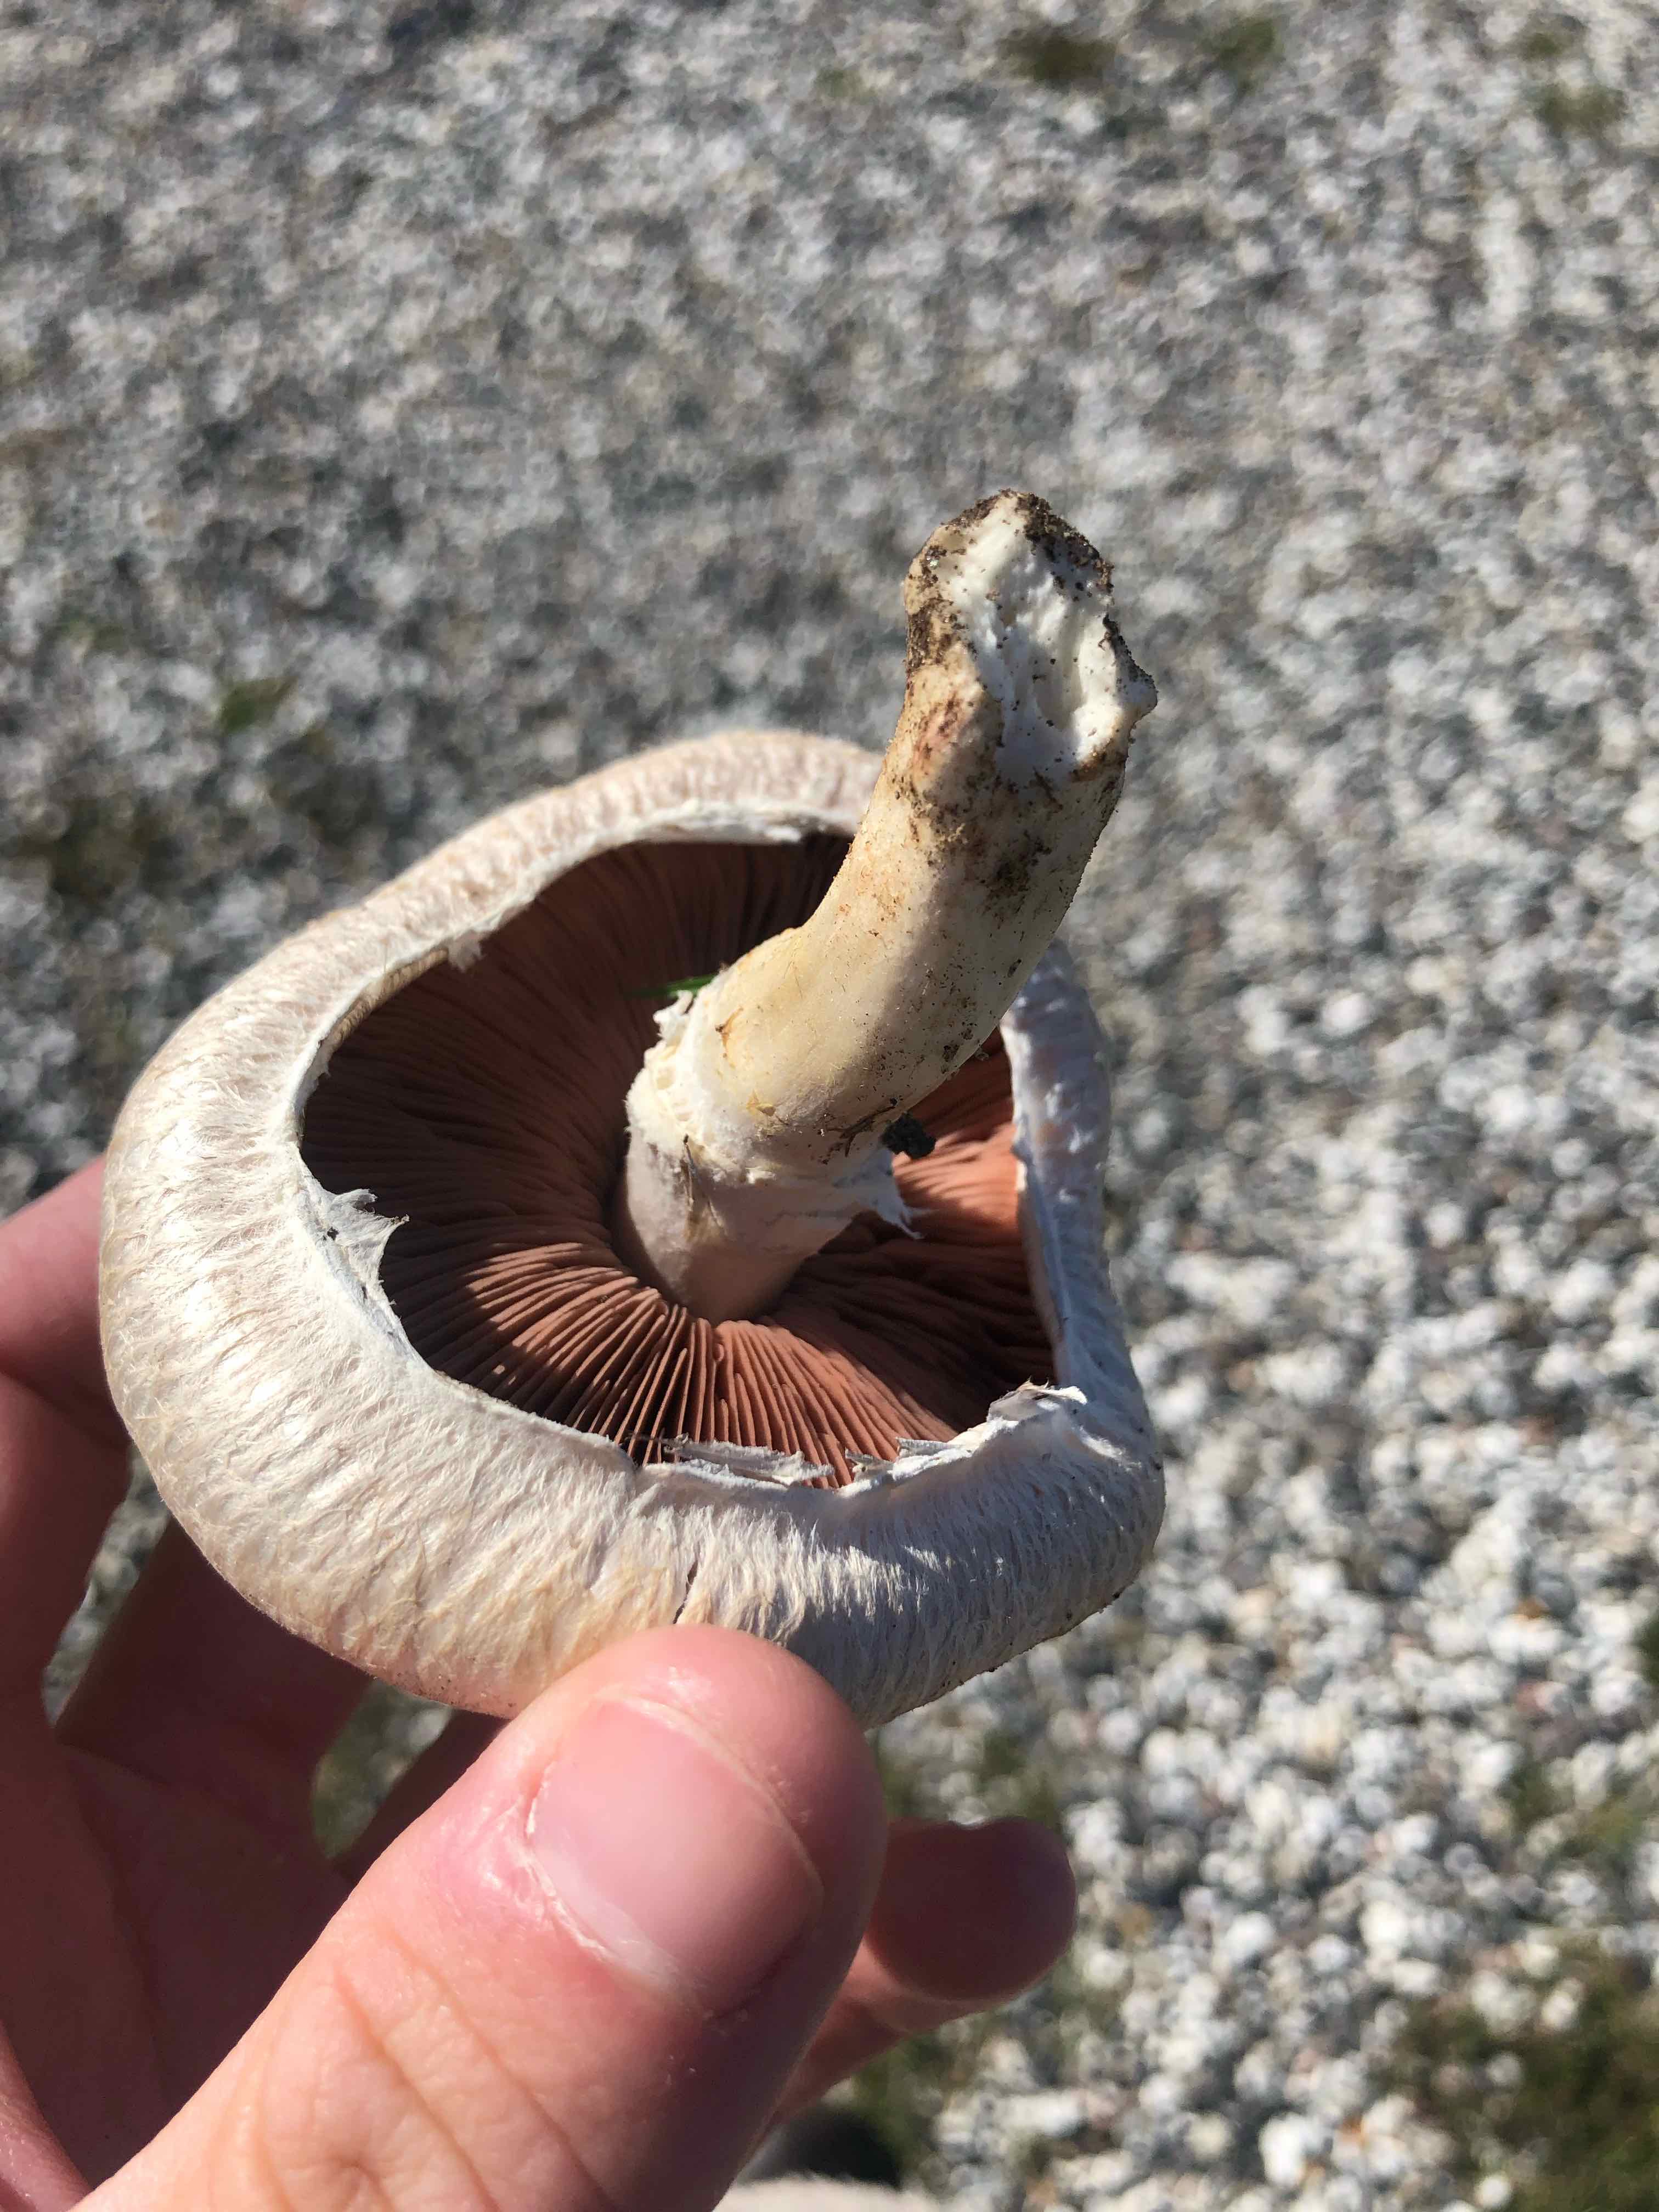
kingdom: Fungi
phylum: Basidiomycota
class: Agaricomycetes
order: Agaricales
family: Agaricaceae
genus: Agaricus
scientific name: Agaricus
